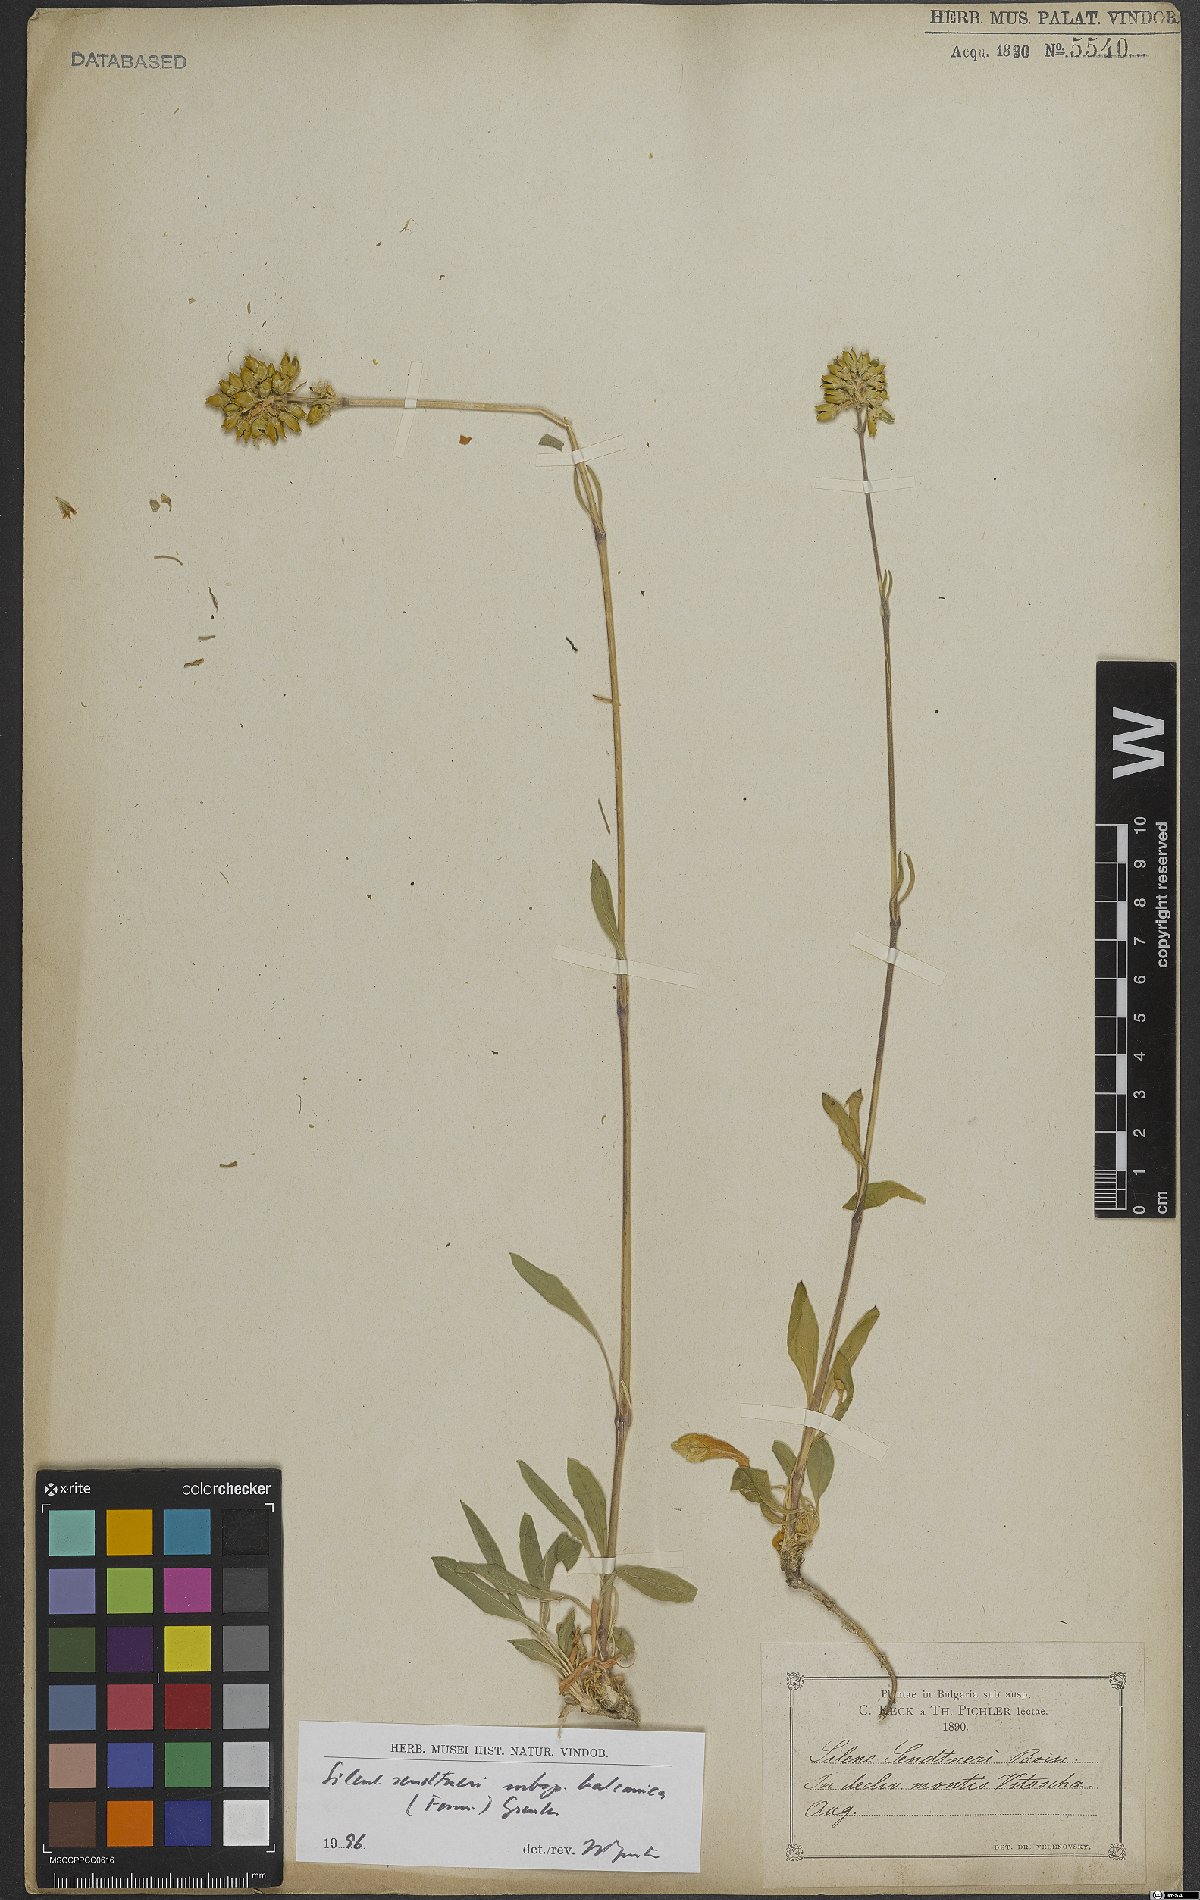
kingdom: Plantae
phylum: Tracheophyta
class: Magnoliopsida
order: Caryophyllales
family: Caryophyllaceae
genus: Silene
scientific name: Silene sendtneri
